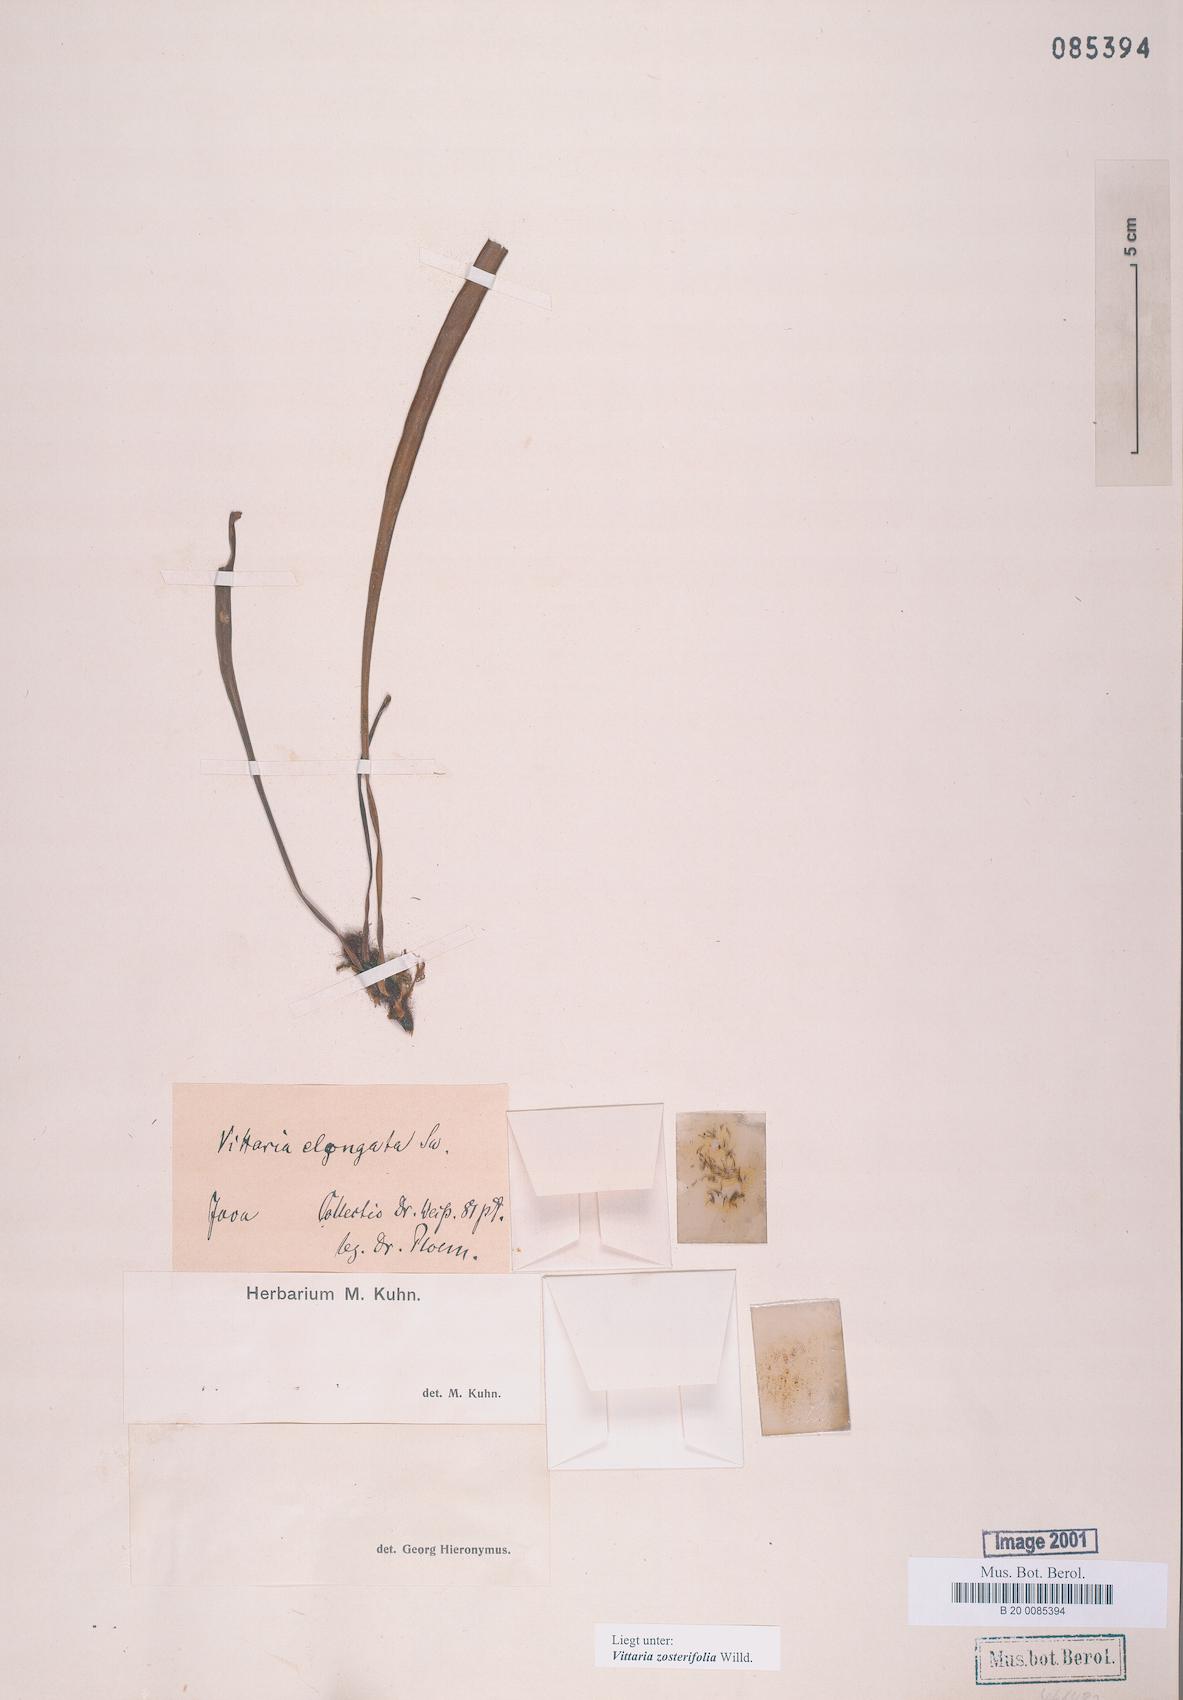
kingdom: Plantae
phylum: Tracheophyta
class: Polypodiopsida
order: Polypodiales
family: Pteridaceae
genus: Haplopteris
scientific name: Haplopteris zosterifolia
